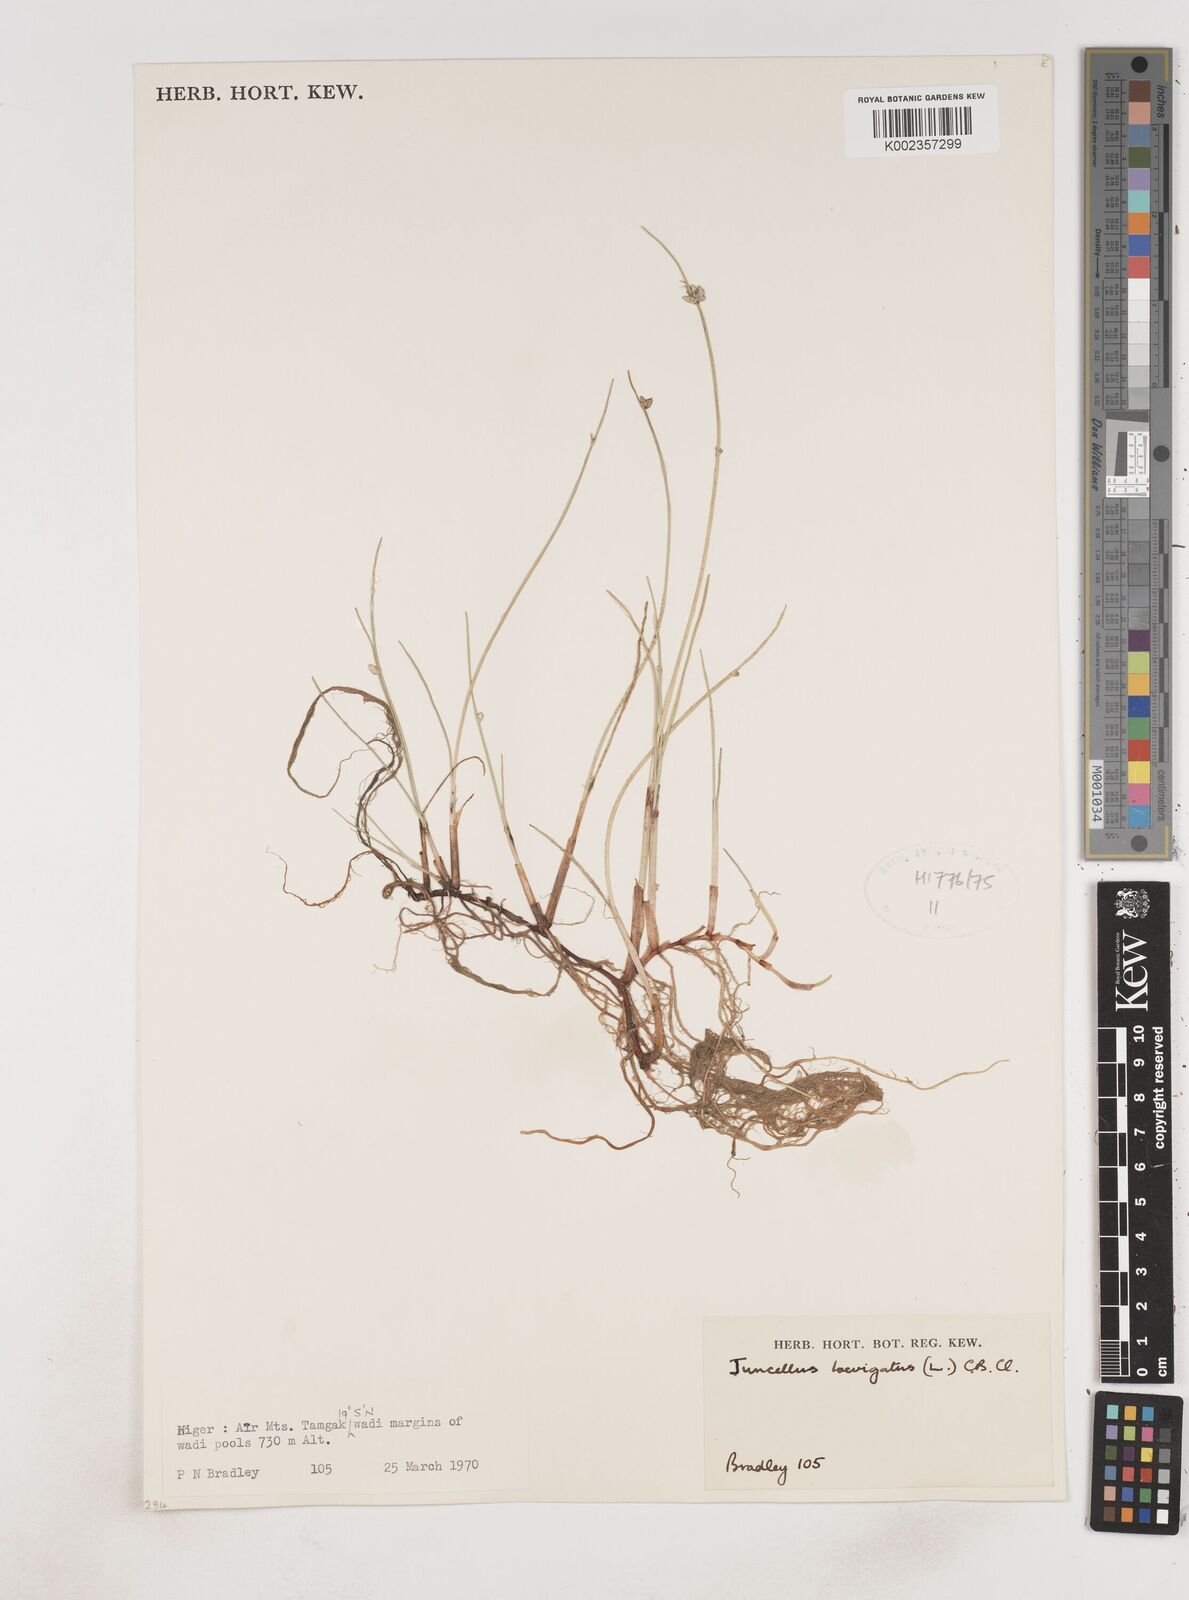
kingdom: Plantae
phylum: Tracheophyta
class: Liliopsida
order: Poales
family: Cyperaceae
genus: Cyperus
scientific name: Cyperus laevigatus
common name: Smooth flat sedge
